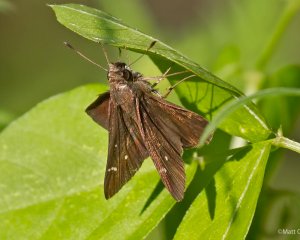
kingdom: Animalia
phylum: Arthropoda
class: Insecta
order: Lepidoptera
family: Hesperiidae
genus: Lerema
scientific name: Lerema accius
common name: Clouded Skipper
